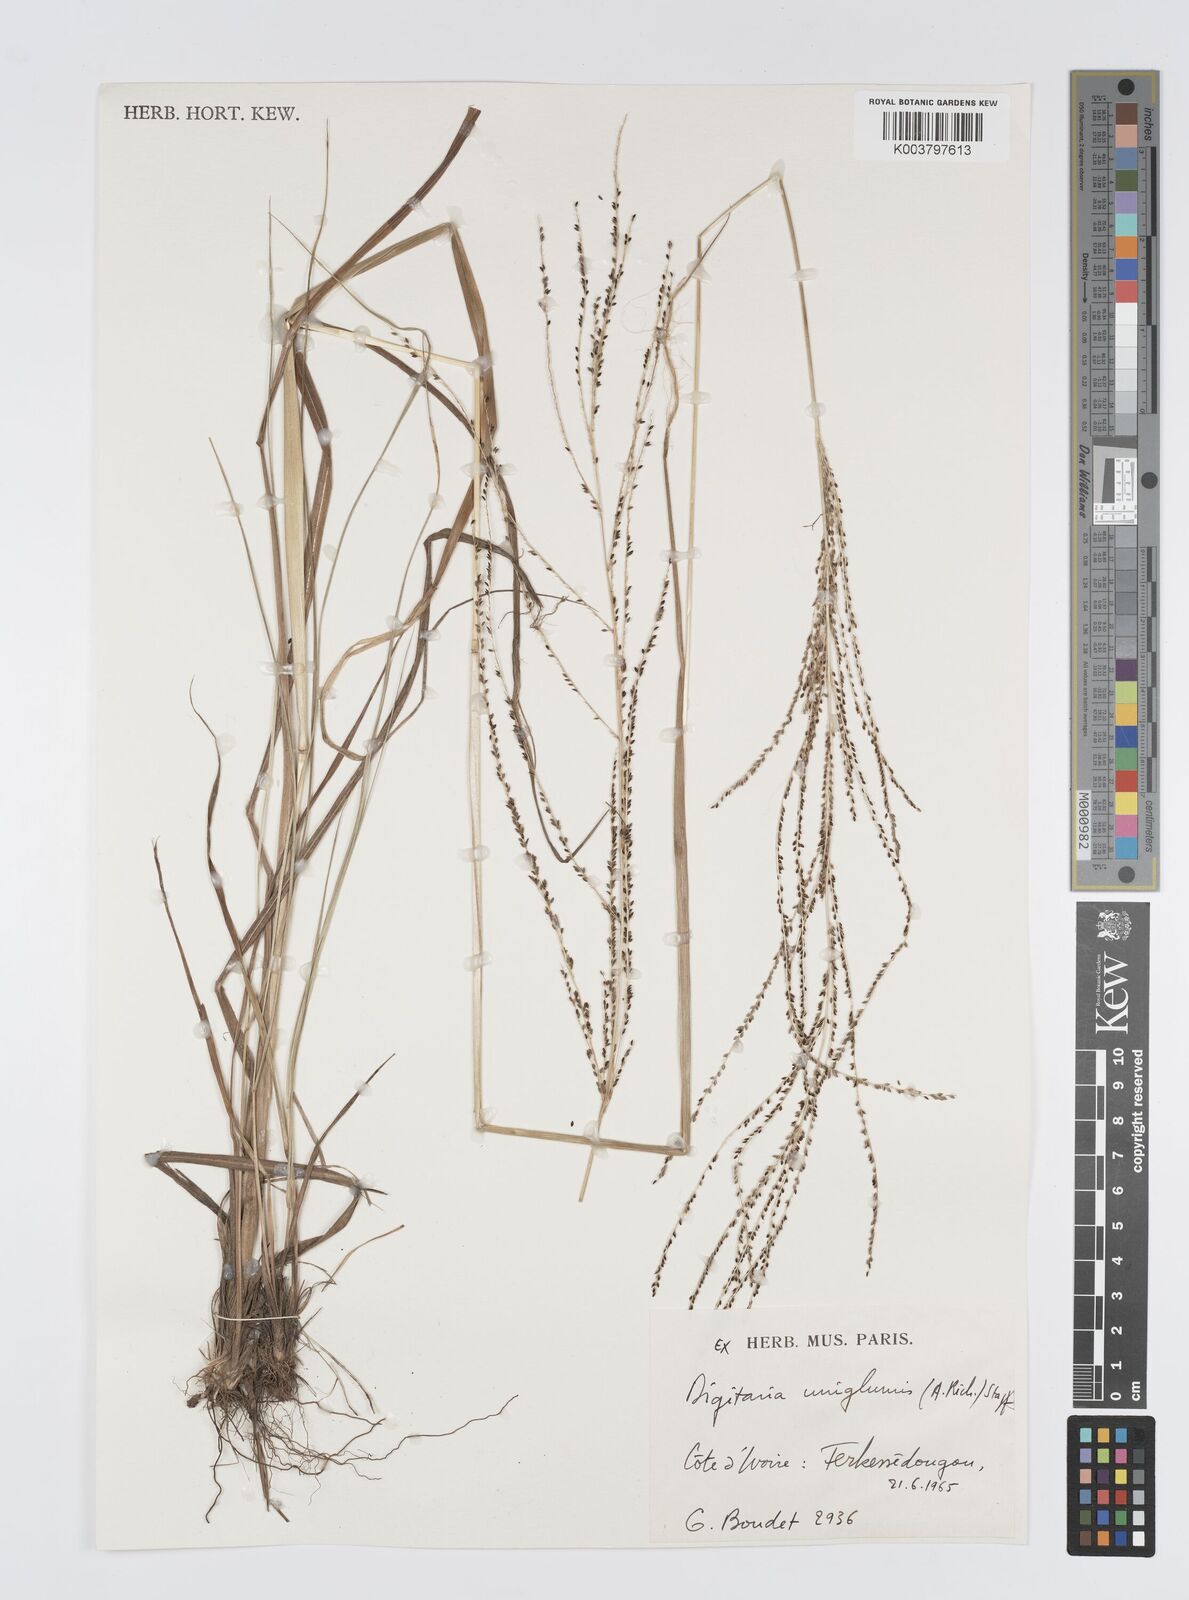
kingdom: Plantae
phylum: Tracheophyta
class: Liliopsida
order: Poales
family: Poaceae
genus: Digitaria
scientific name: Digitaria diagonalis
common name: Brown-seed finger grass
